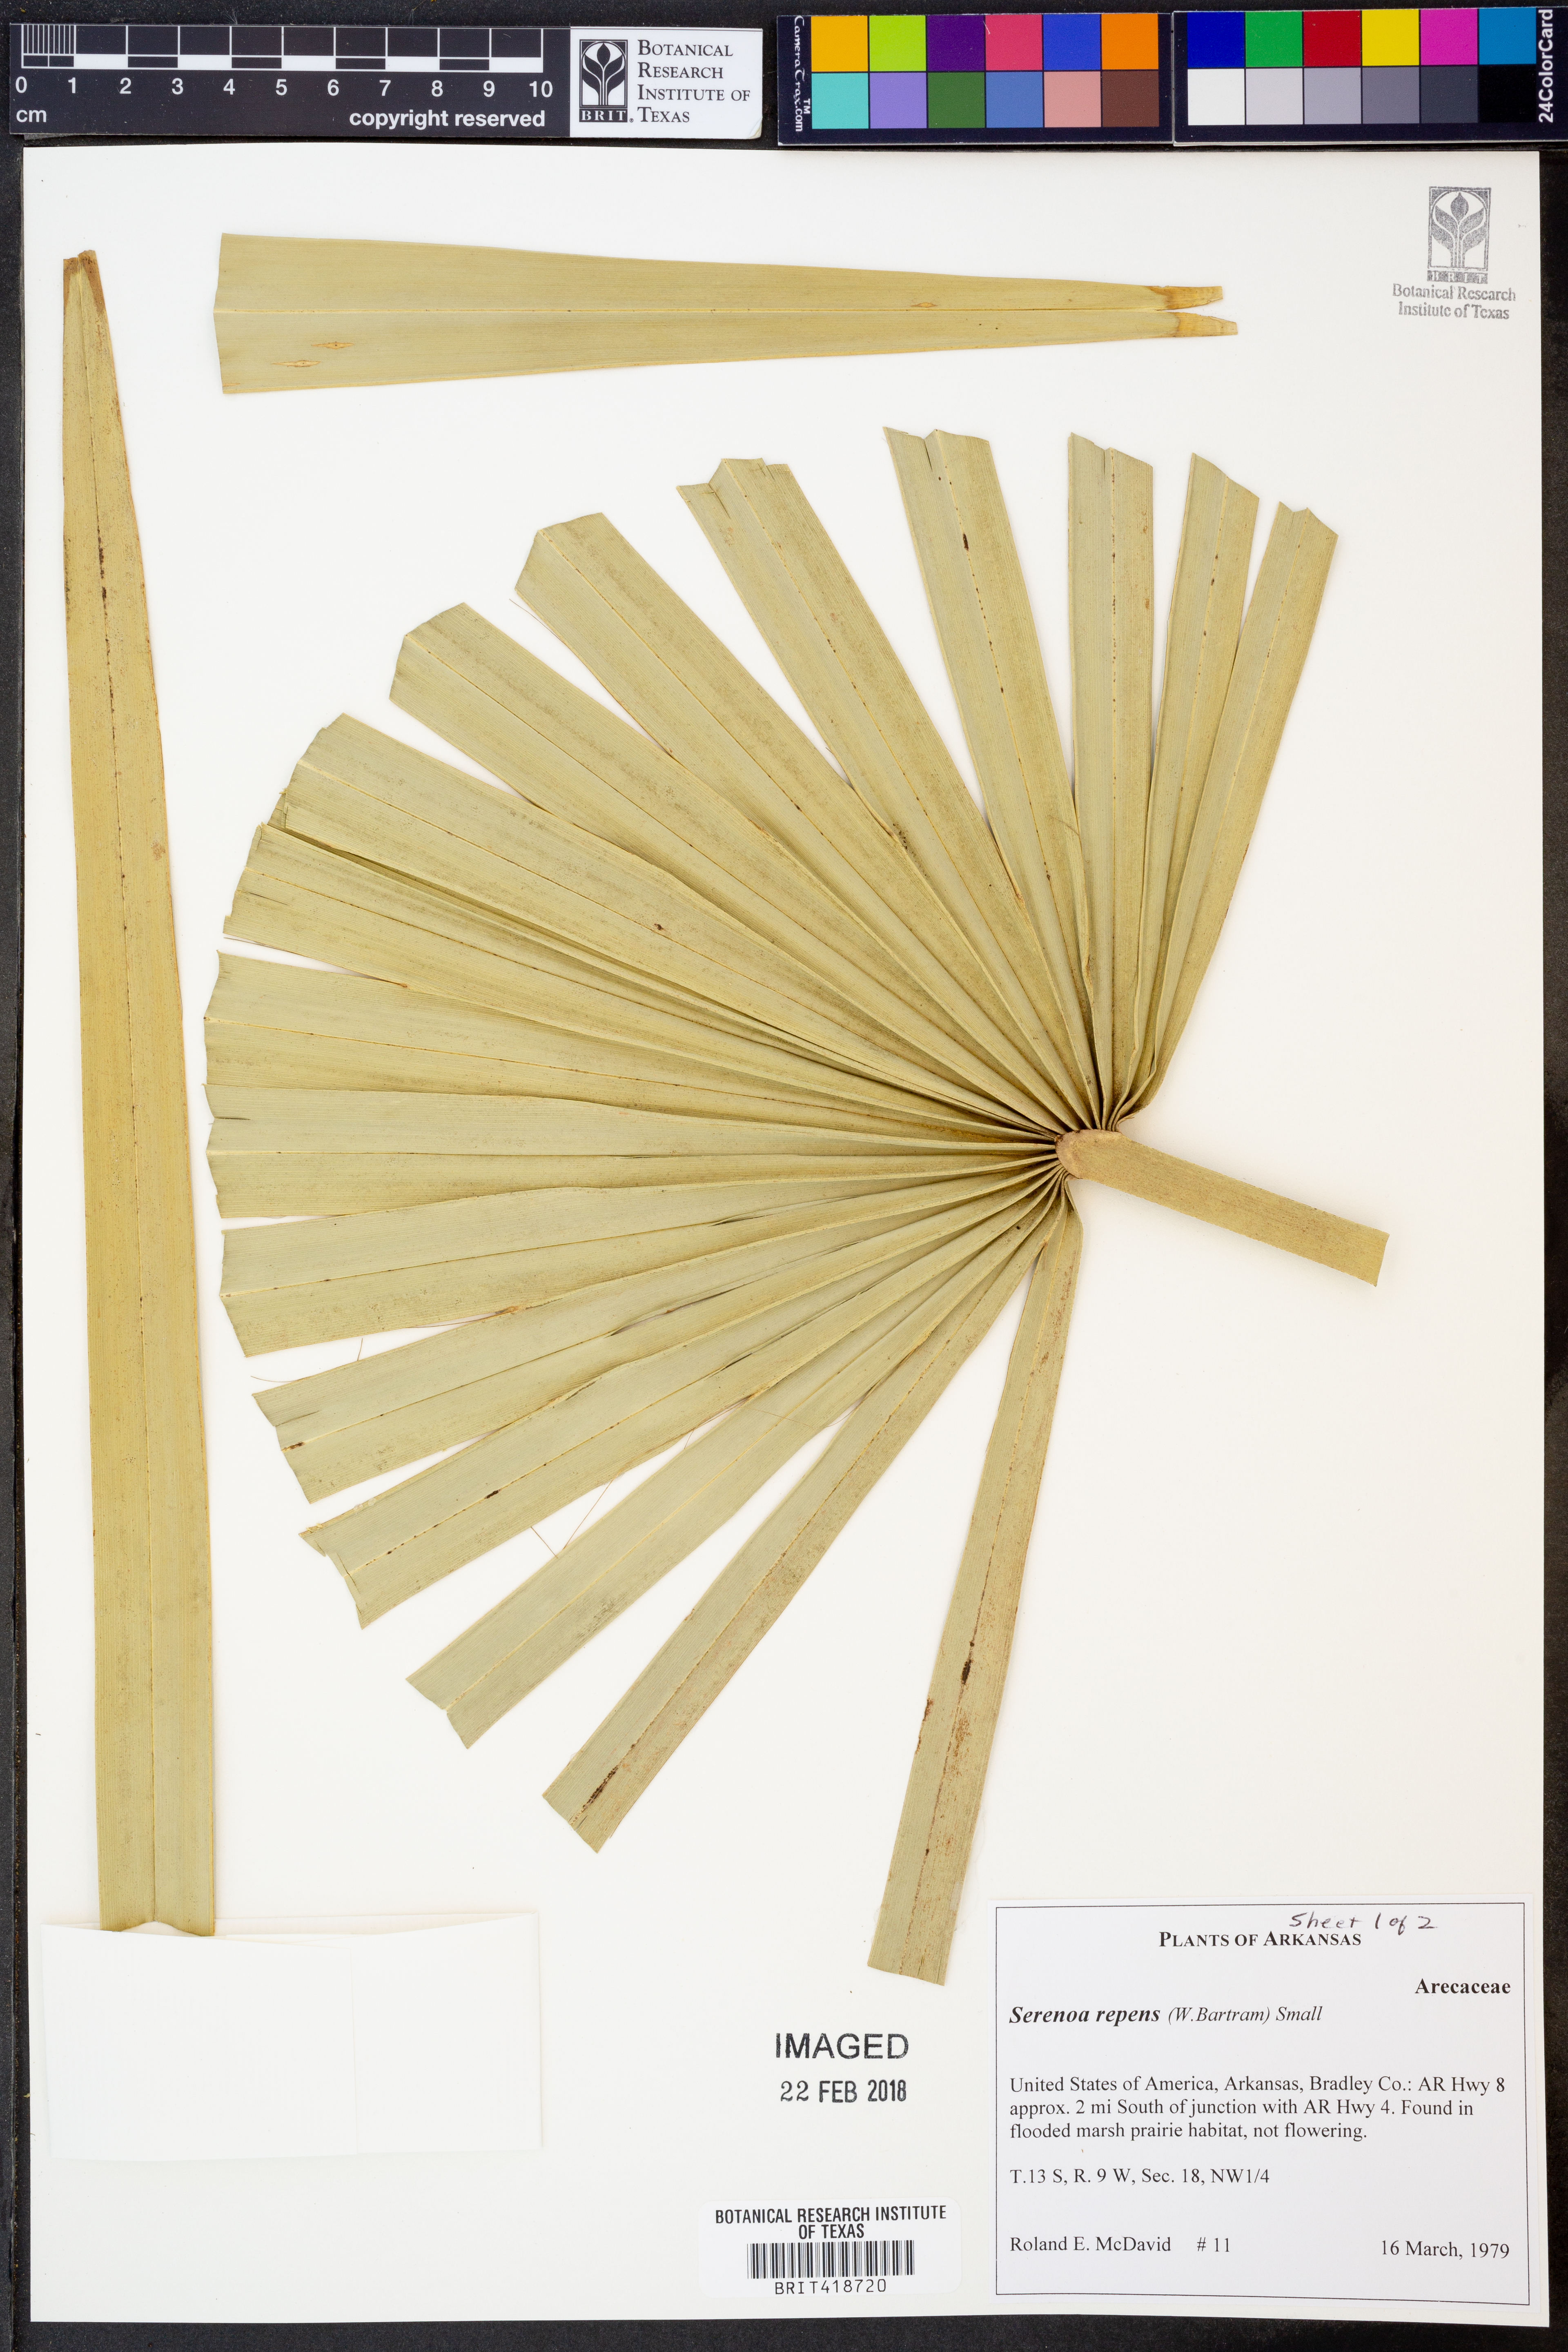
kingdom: Plantae
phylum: Tracheophyta
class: Liliopsida
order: Arecales
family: Arecaceae
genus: Serenoa
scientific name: Serenoa repens
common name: Saw-palmetto
